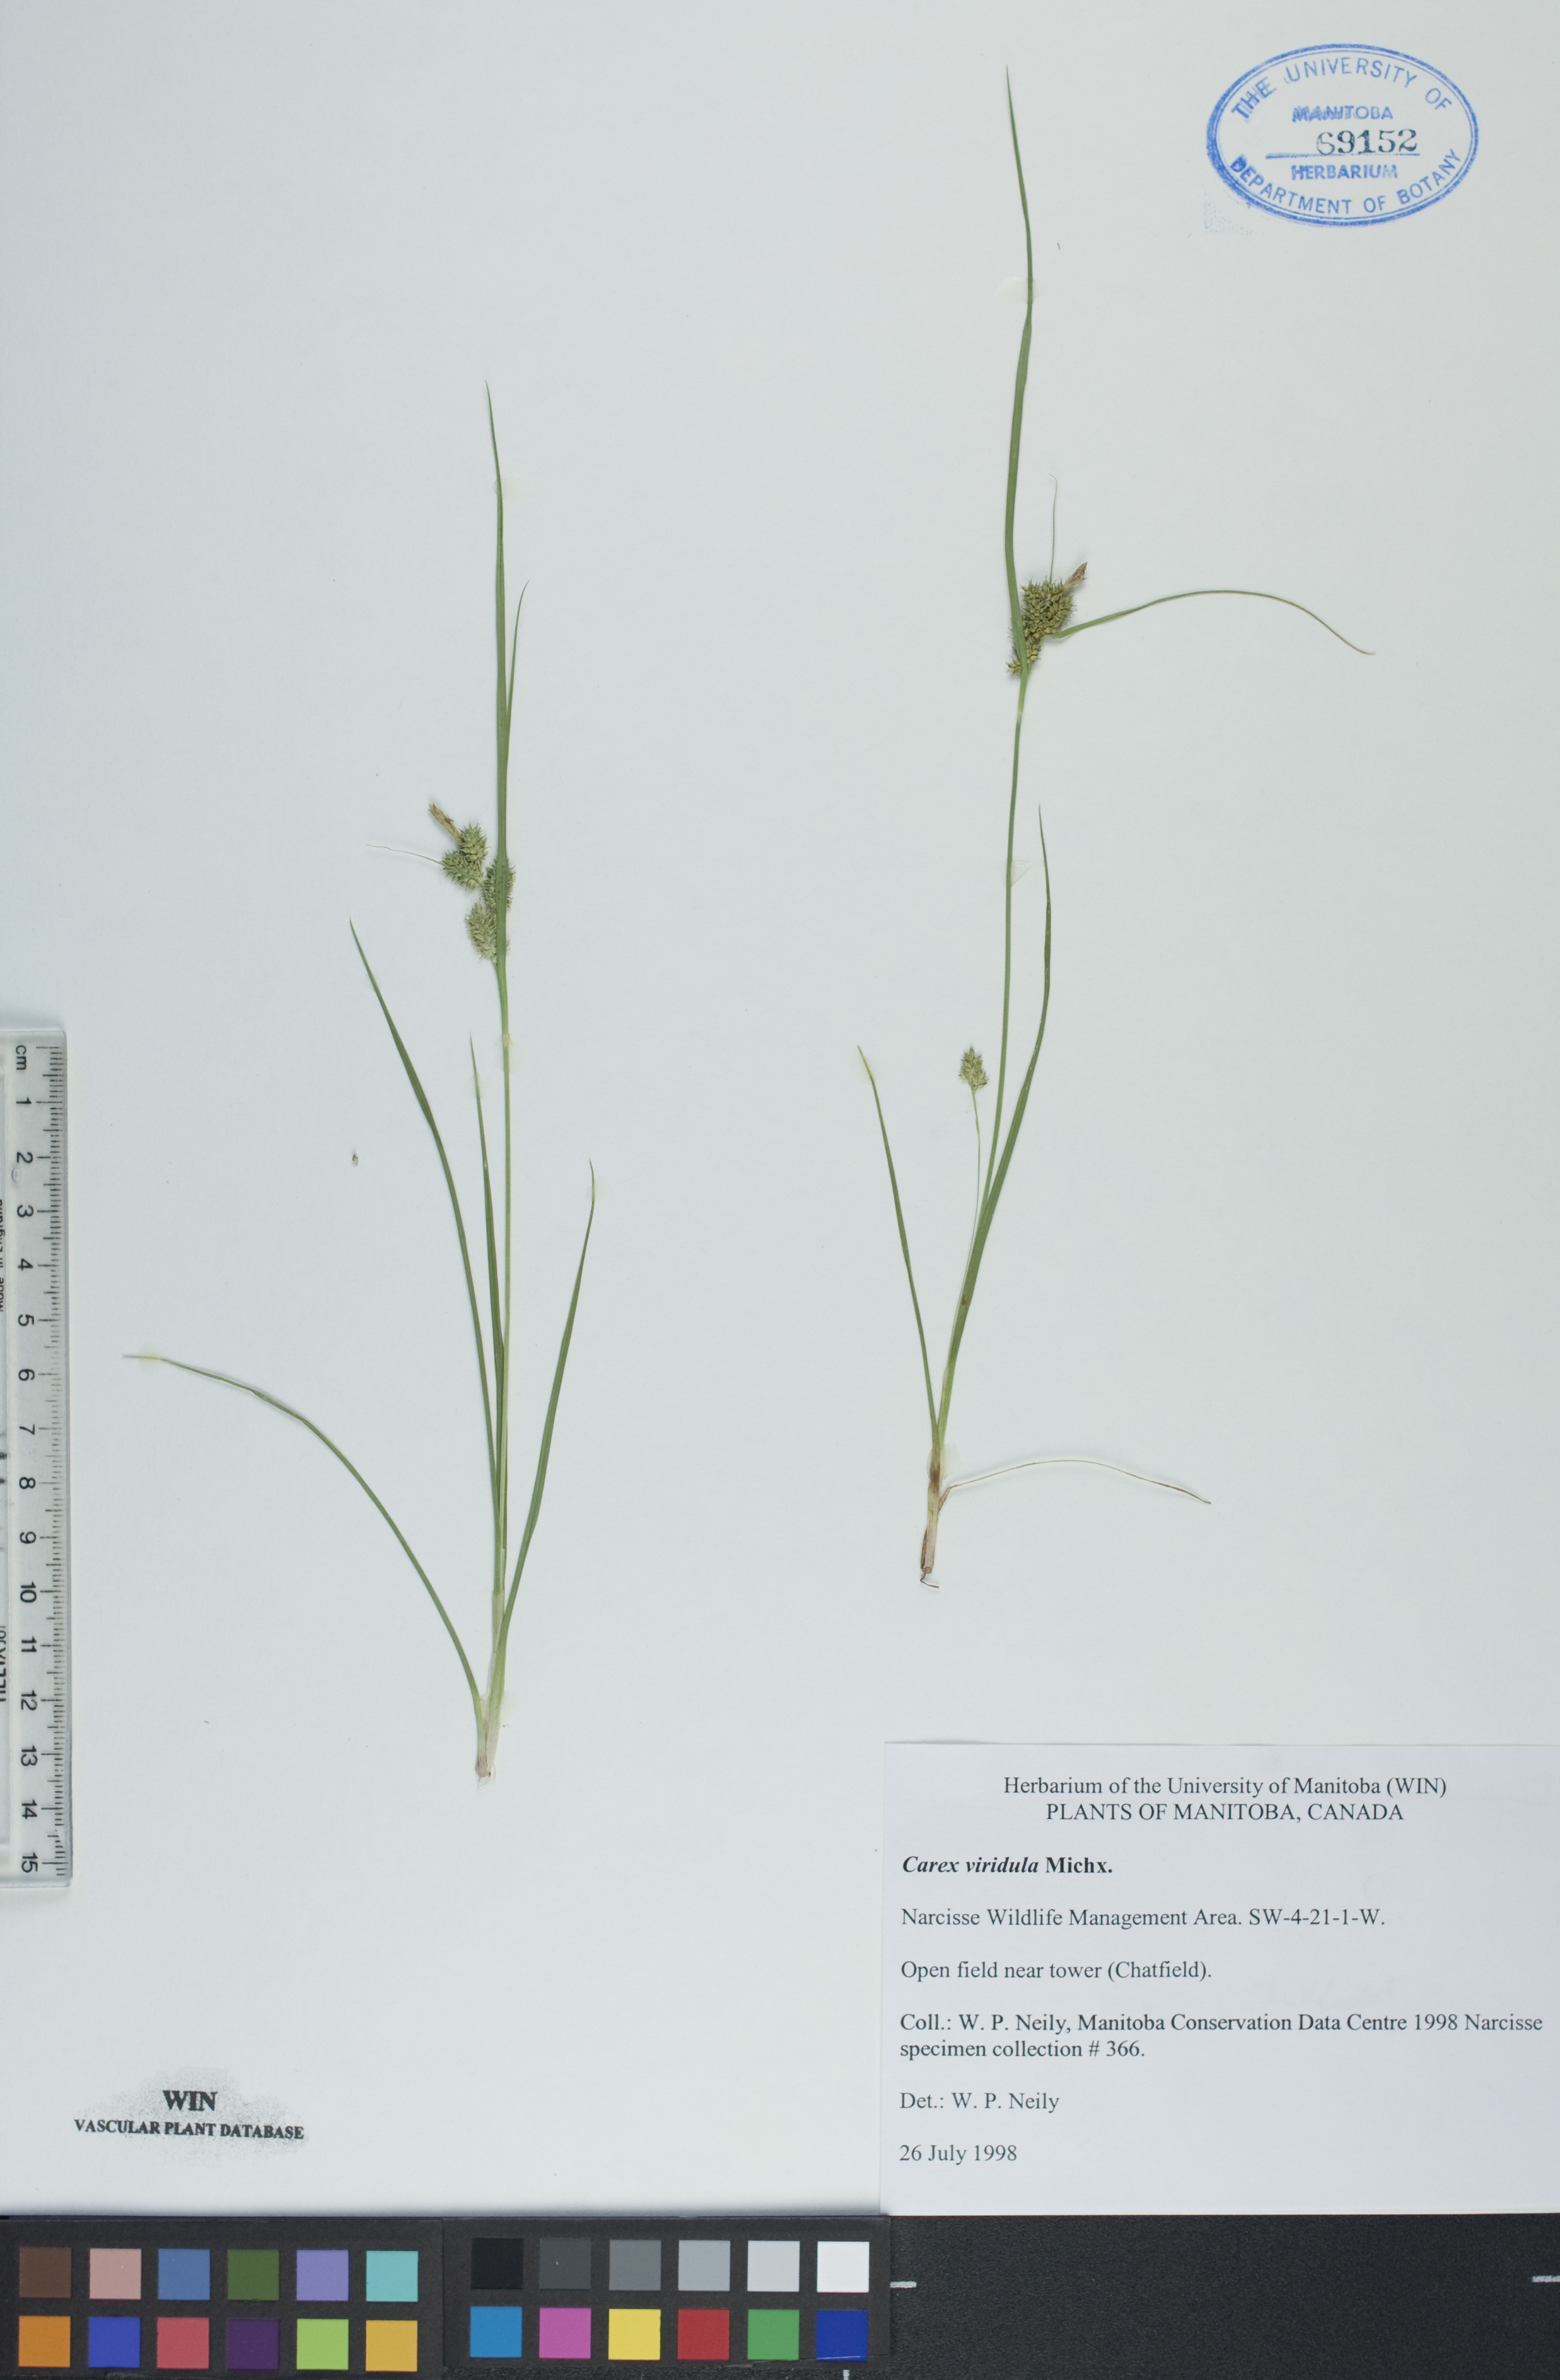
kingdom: Plantae
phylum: Tracheophyta
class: Liliopsida
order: Poales
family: Cyperaceae
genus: Carex
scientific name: Carex oederi
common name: Common & small-fruited yellow-sedge
